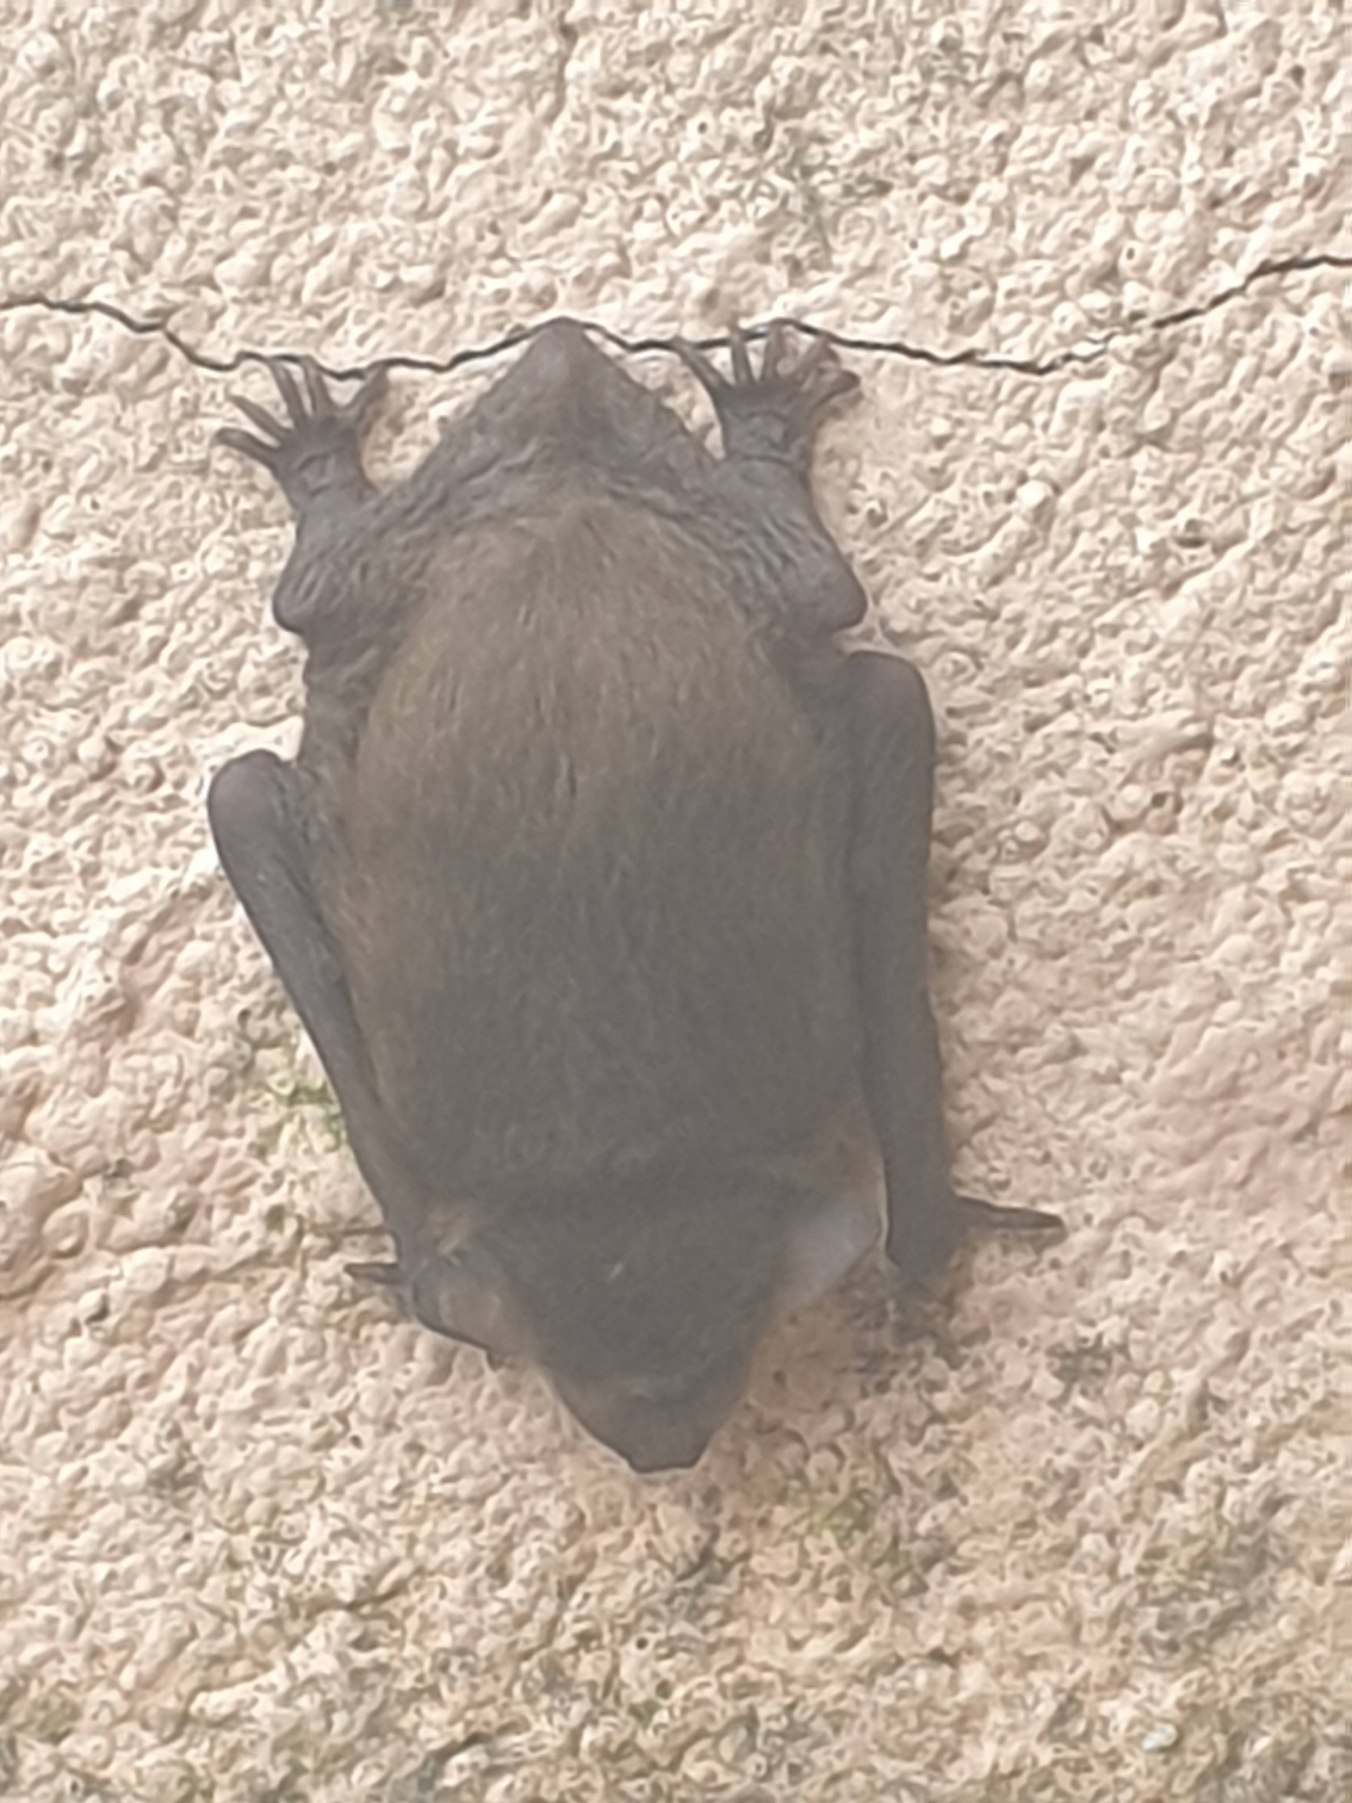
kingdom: Animalia
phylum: Chordata
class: Mammalia
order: Chiroptera
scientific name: Chiroptera
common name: Flagermus
